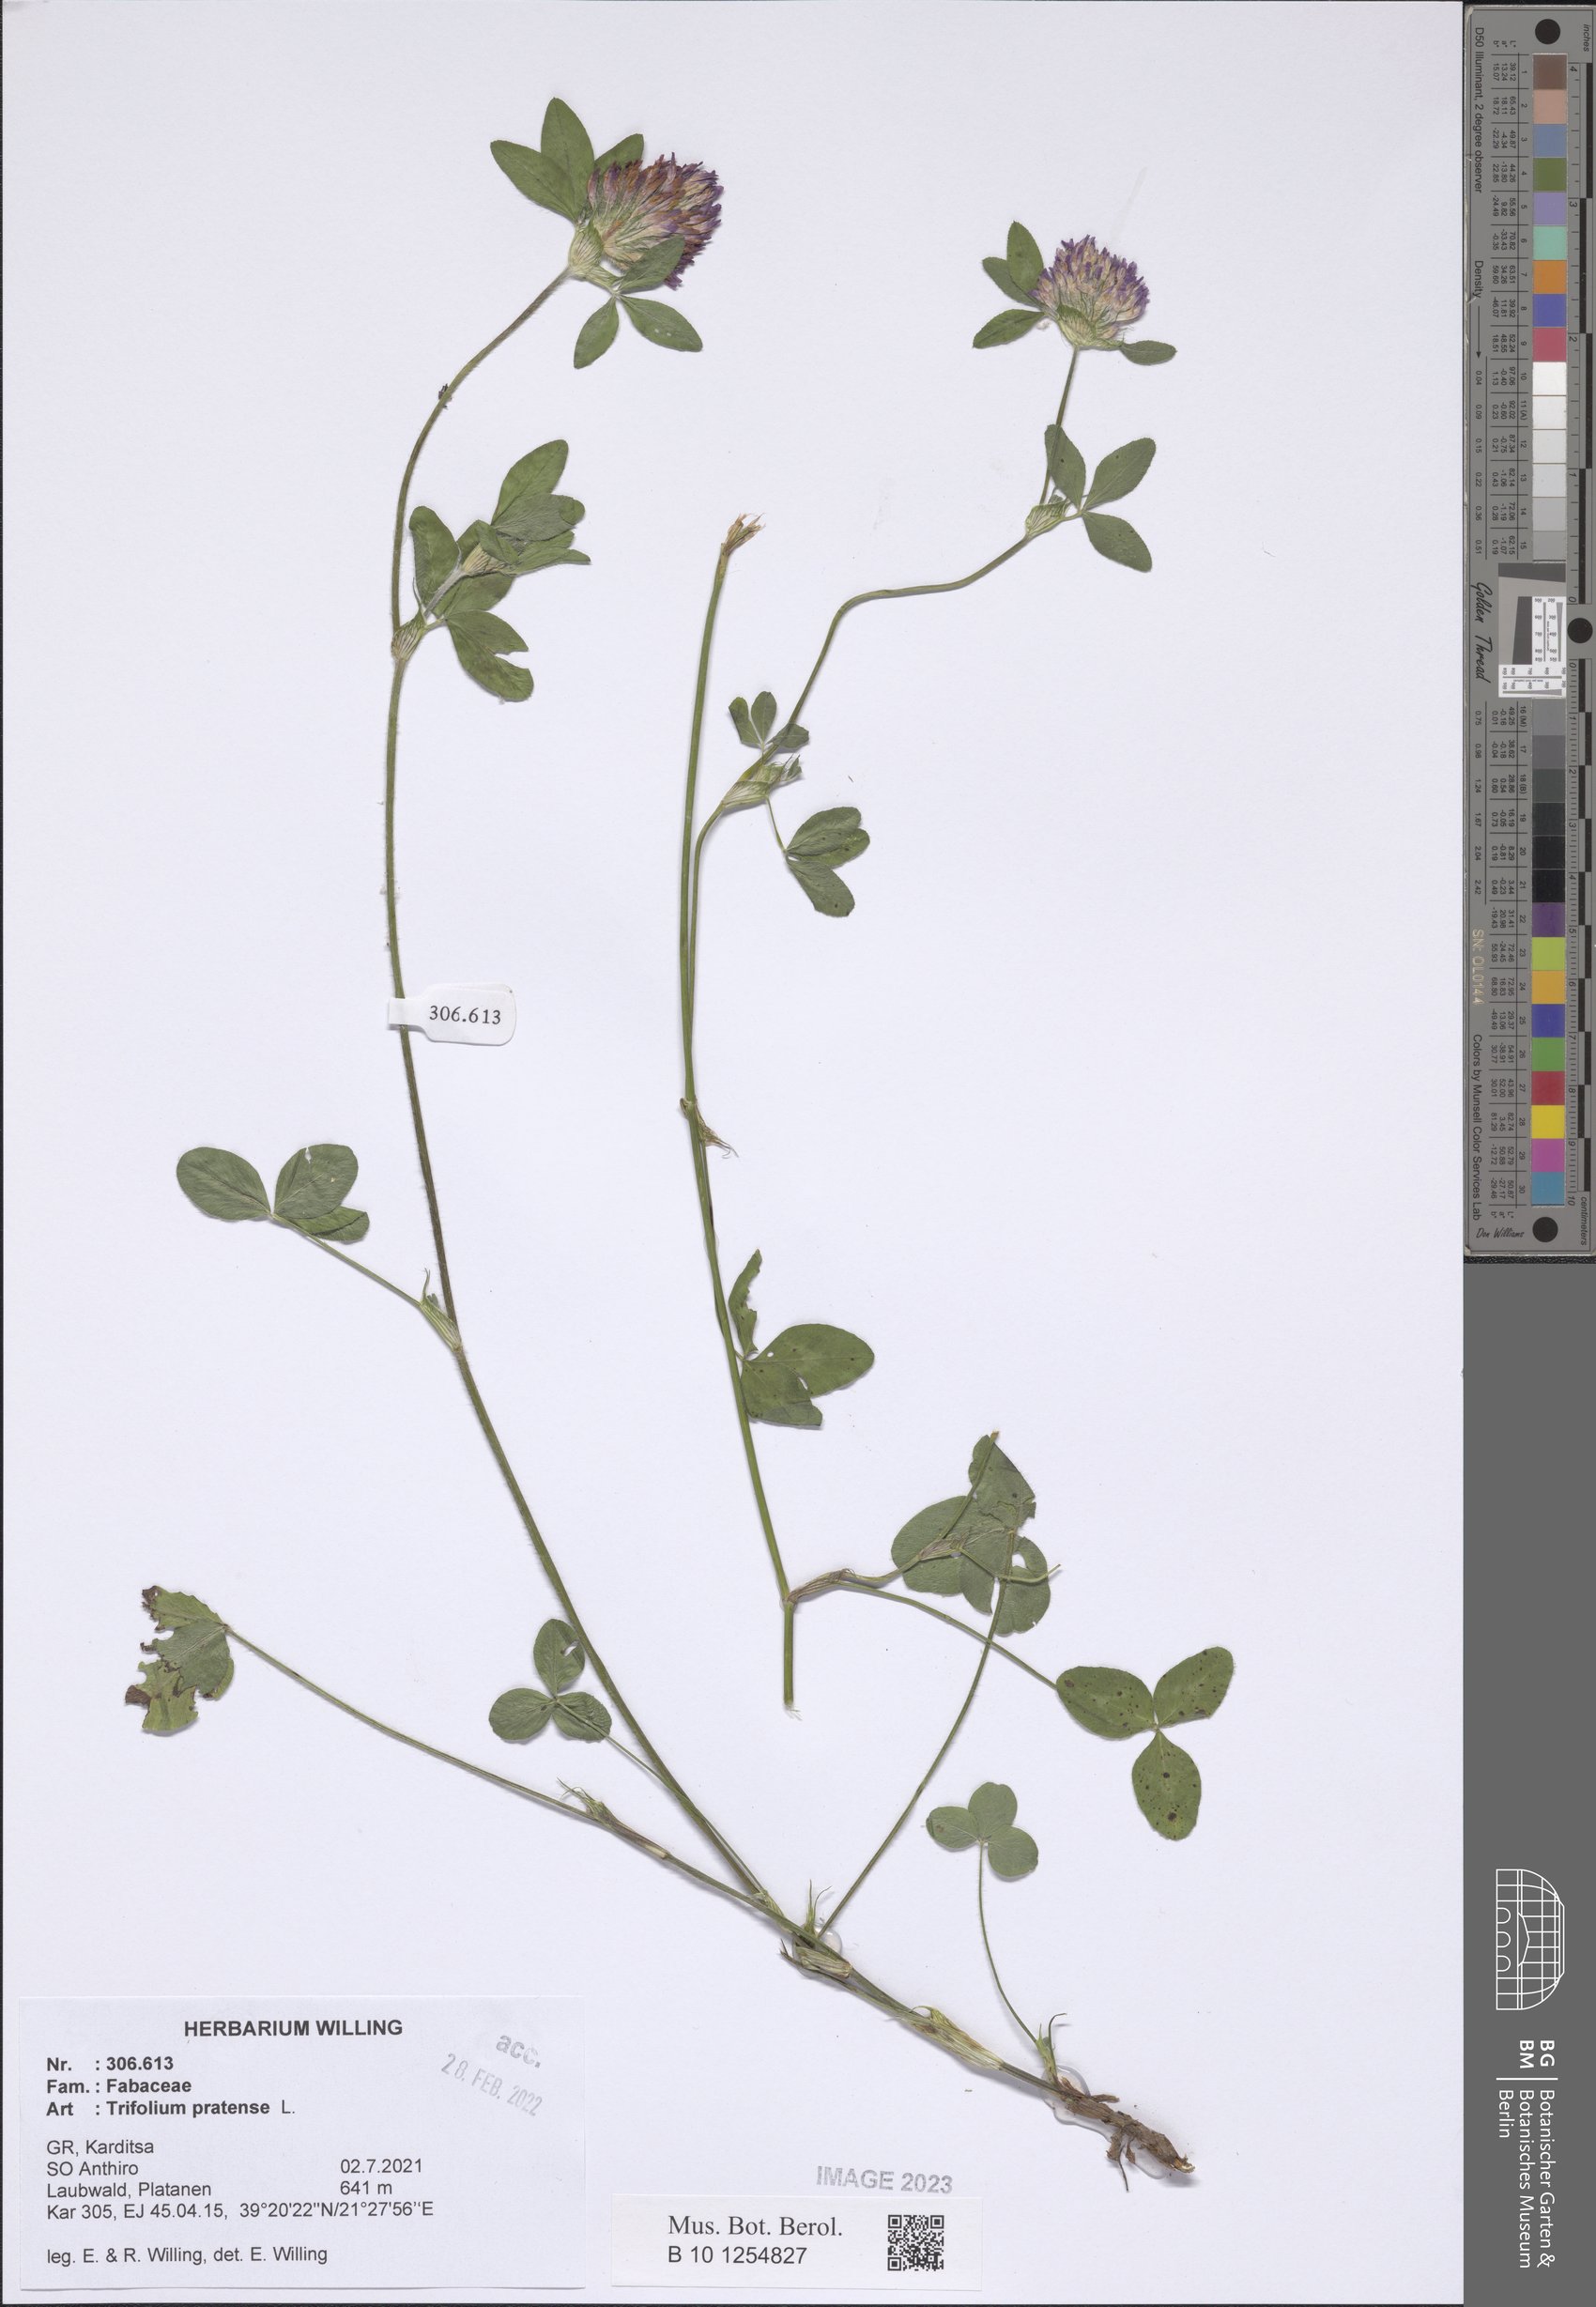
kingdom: Plantae
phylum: Tracheophyta
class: Magnoliopsida
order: Fabales
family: Fabaceae
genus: Trifolium
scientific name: Trifolium pratense
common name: Red clover
